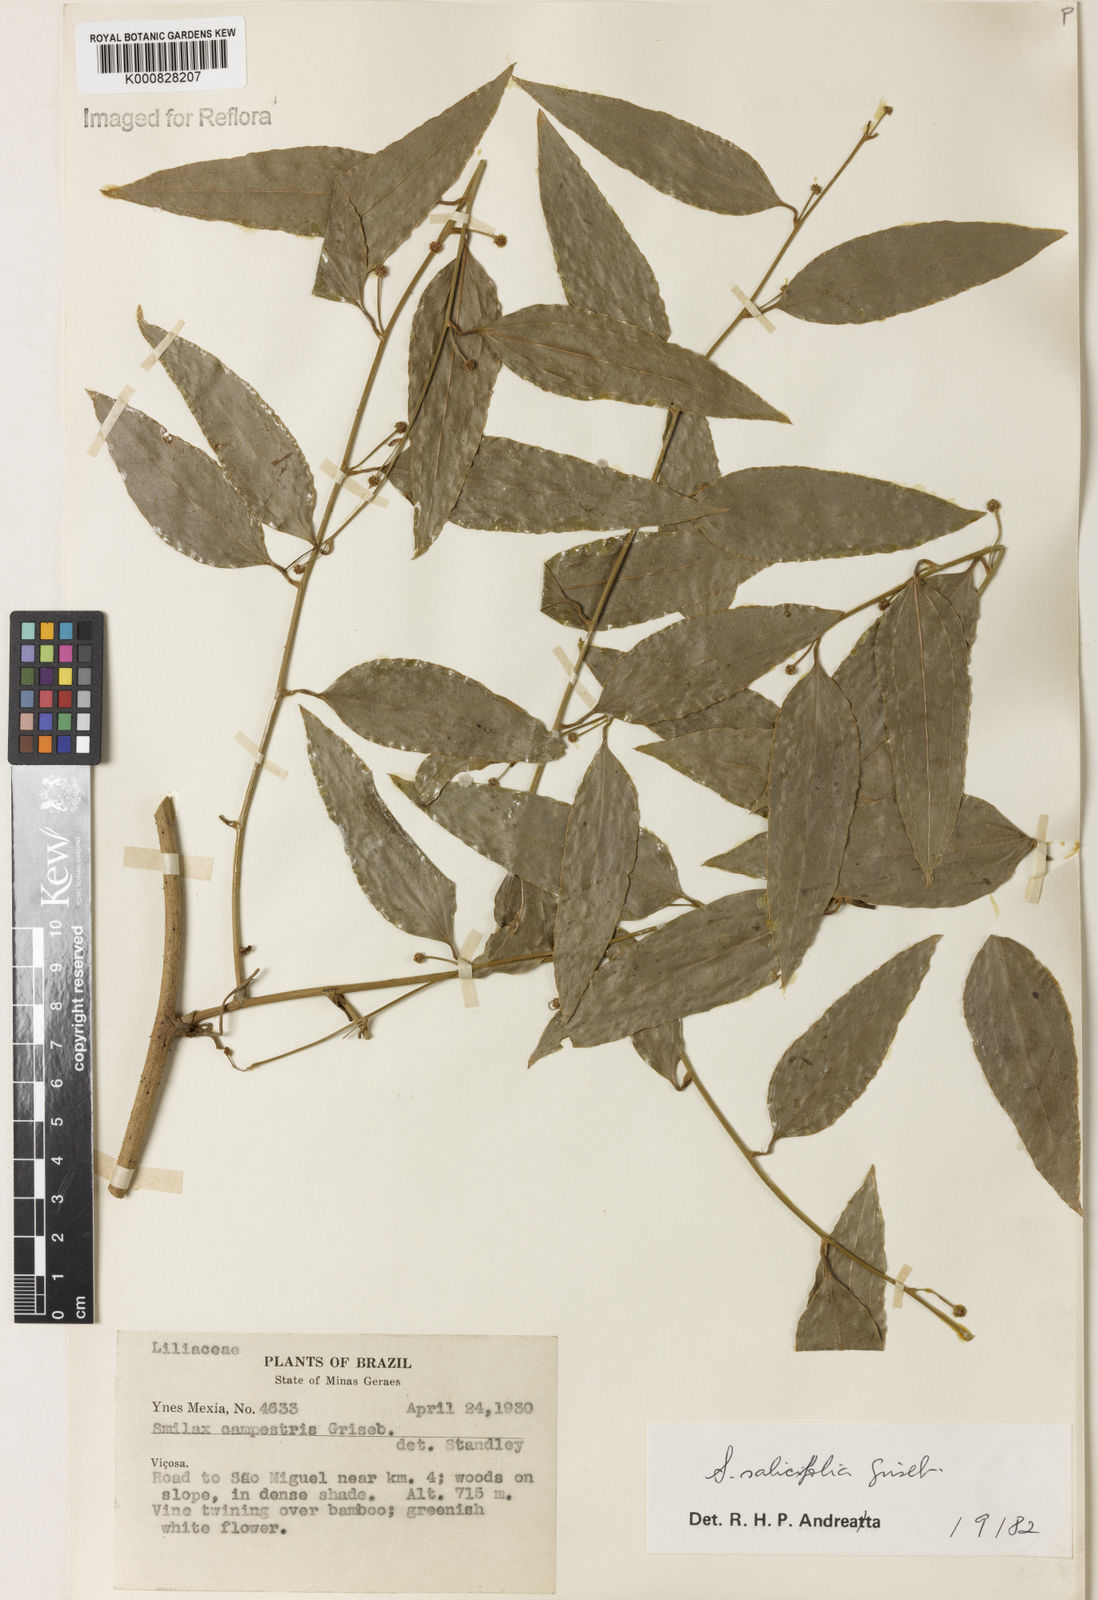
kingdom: Plantae
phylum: Tracheophyta
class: Liliopsida
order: Liliales
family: Smilacaceae
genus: Smilax
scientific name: Smilax salicifolia
